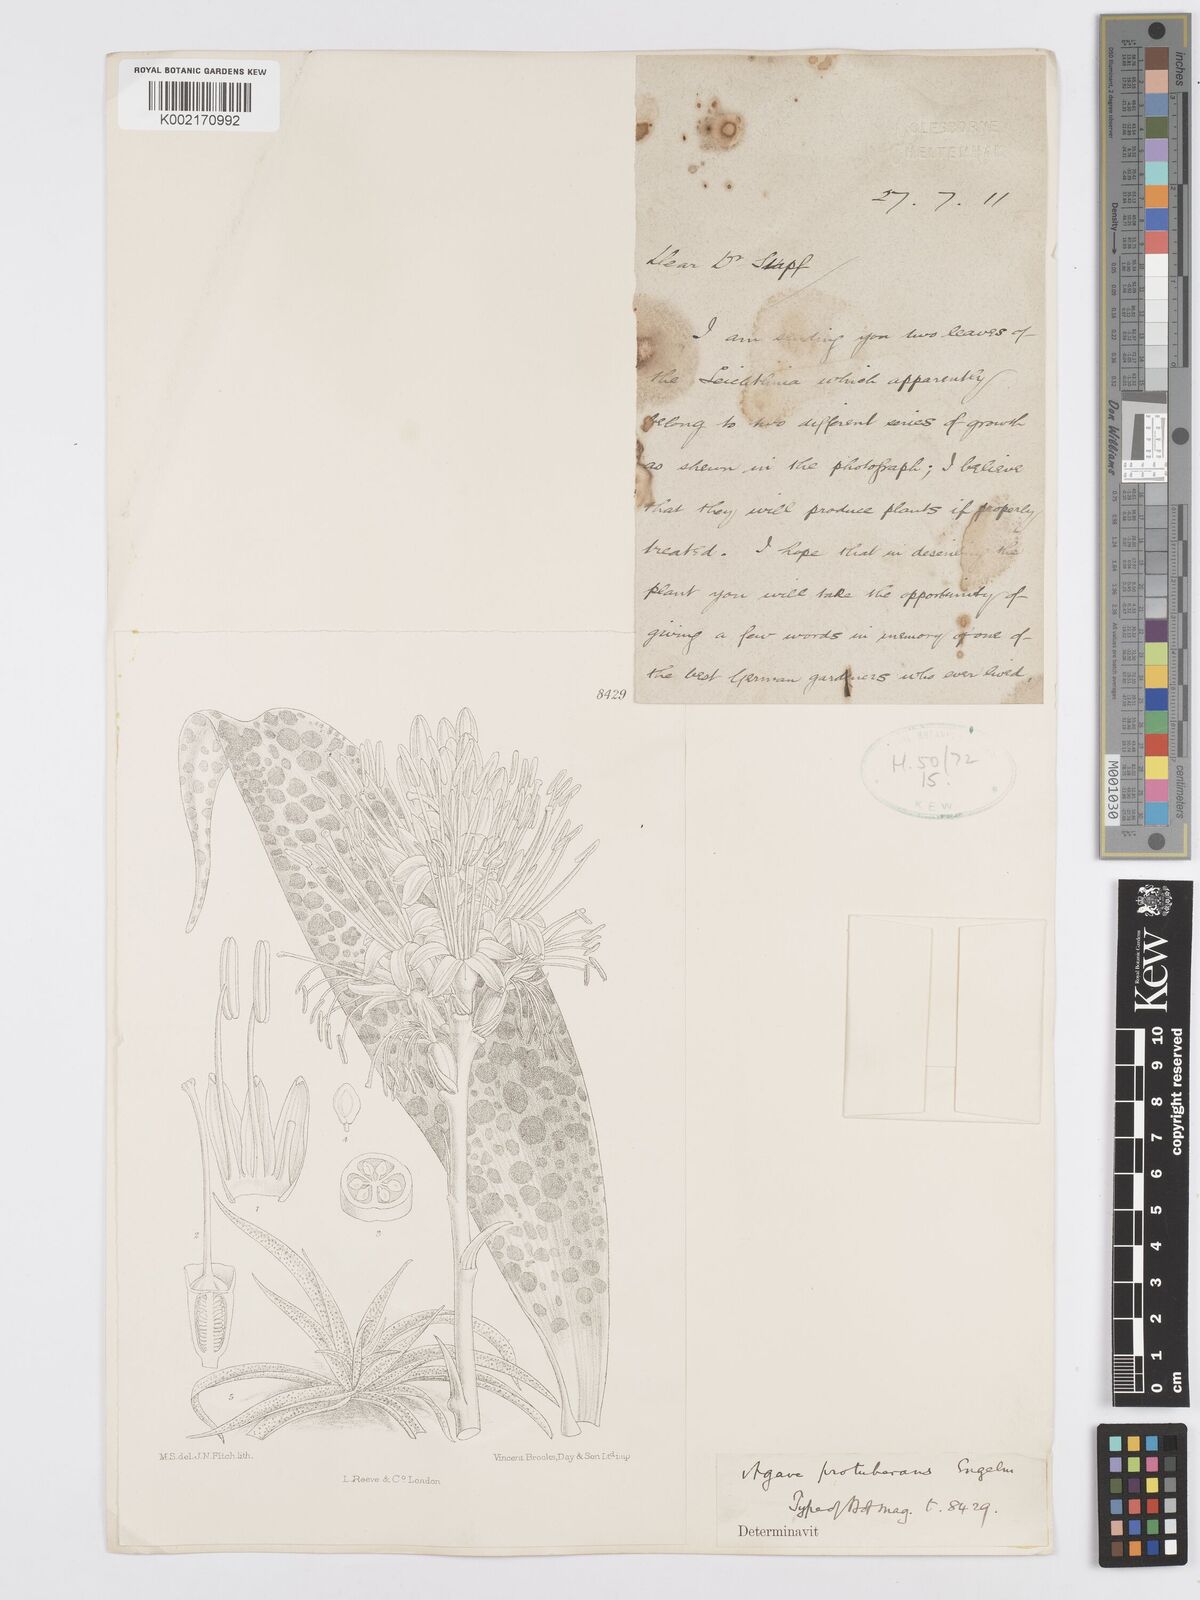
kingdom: Plantae
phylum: Tracheophyta
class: Liliopsida
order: Asparagales
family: Asparagaceae
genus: Agave
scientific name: Agave guttata
